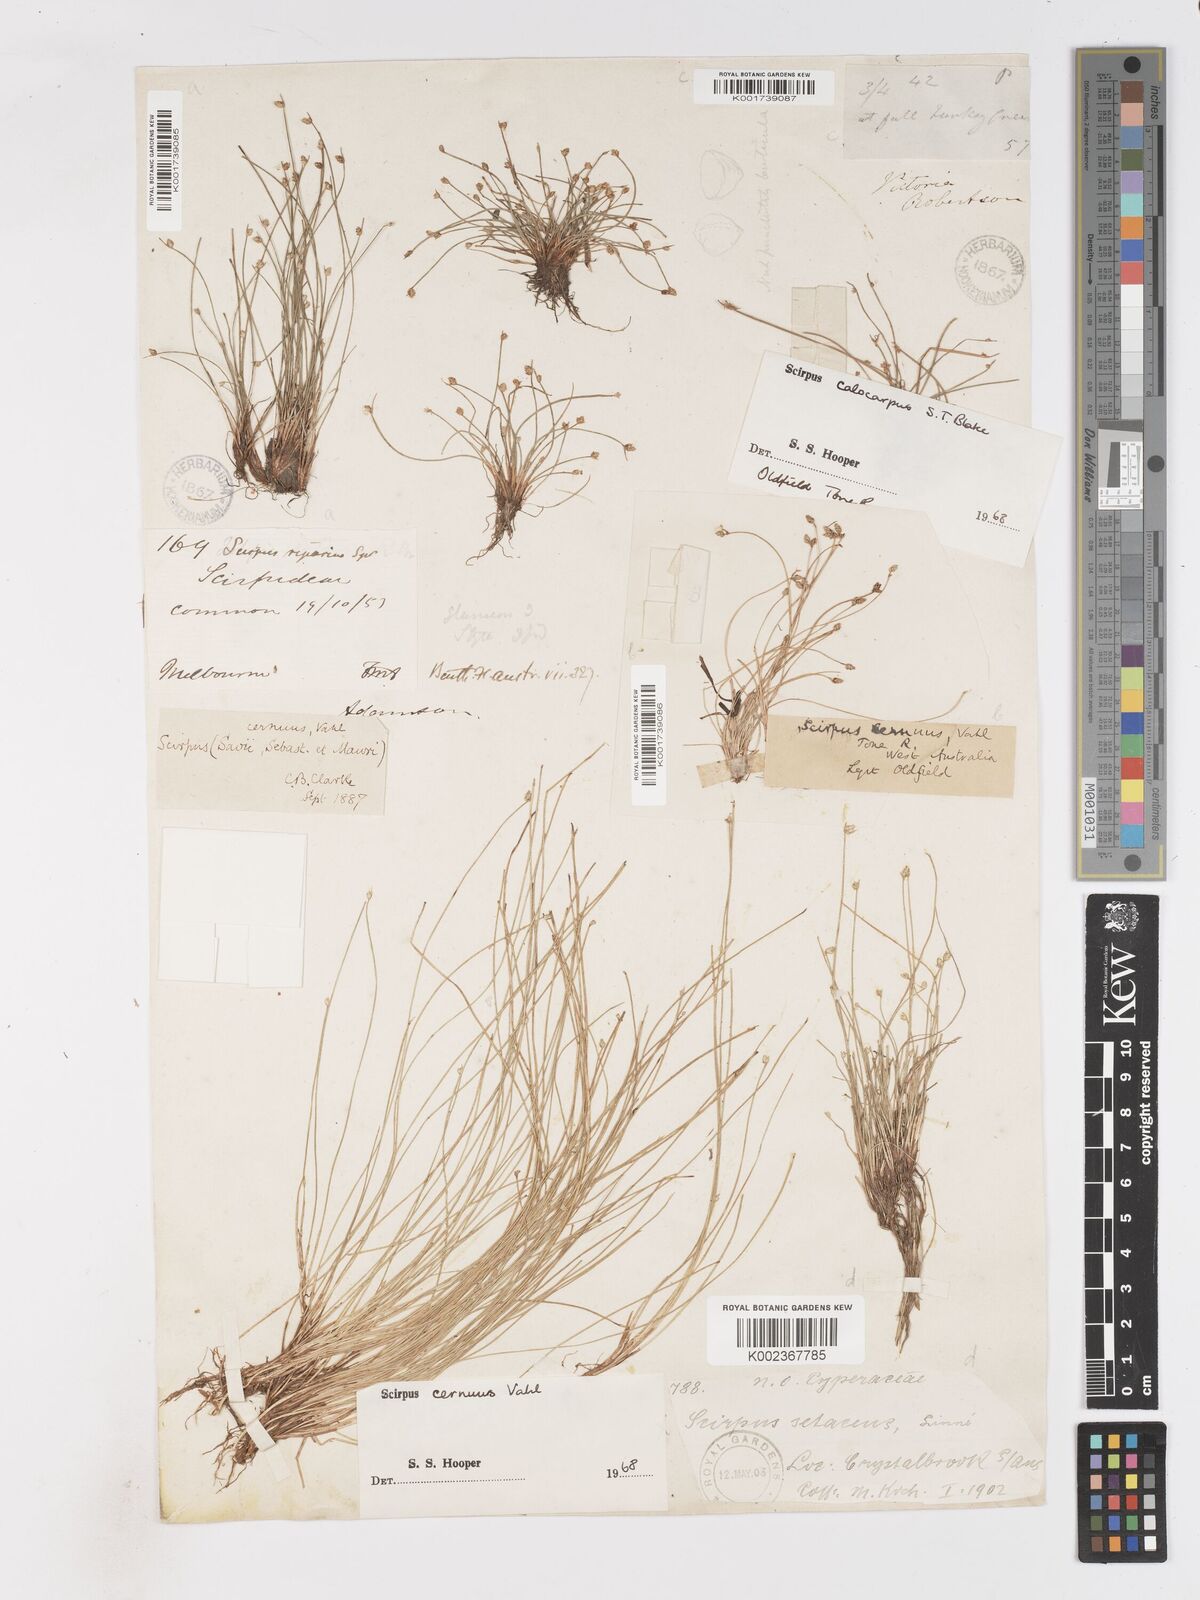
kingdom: Plantae
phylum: Tracheophyta
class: Liliopsida
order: Poales
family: Cyperaceae
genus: Isolepis
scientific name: Isolepis cernua
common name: Slender club-rush
